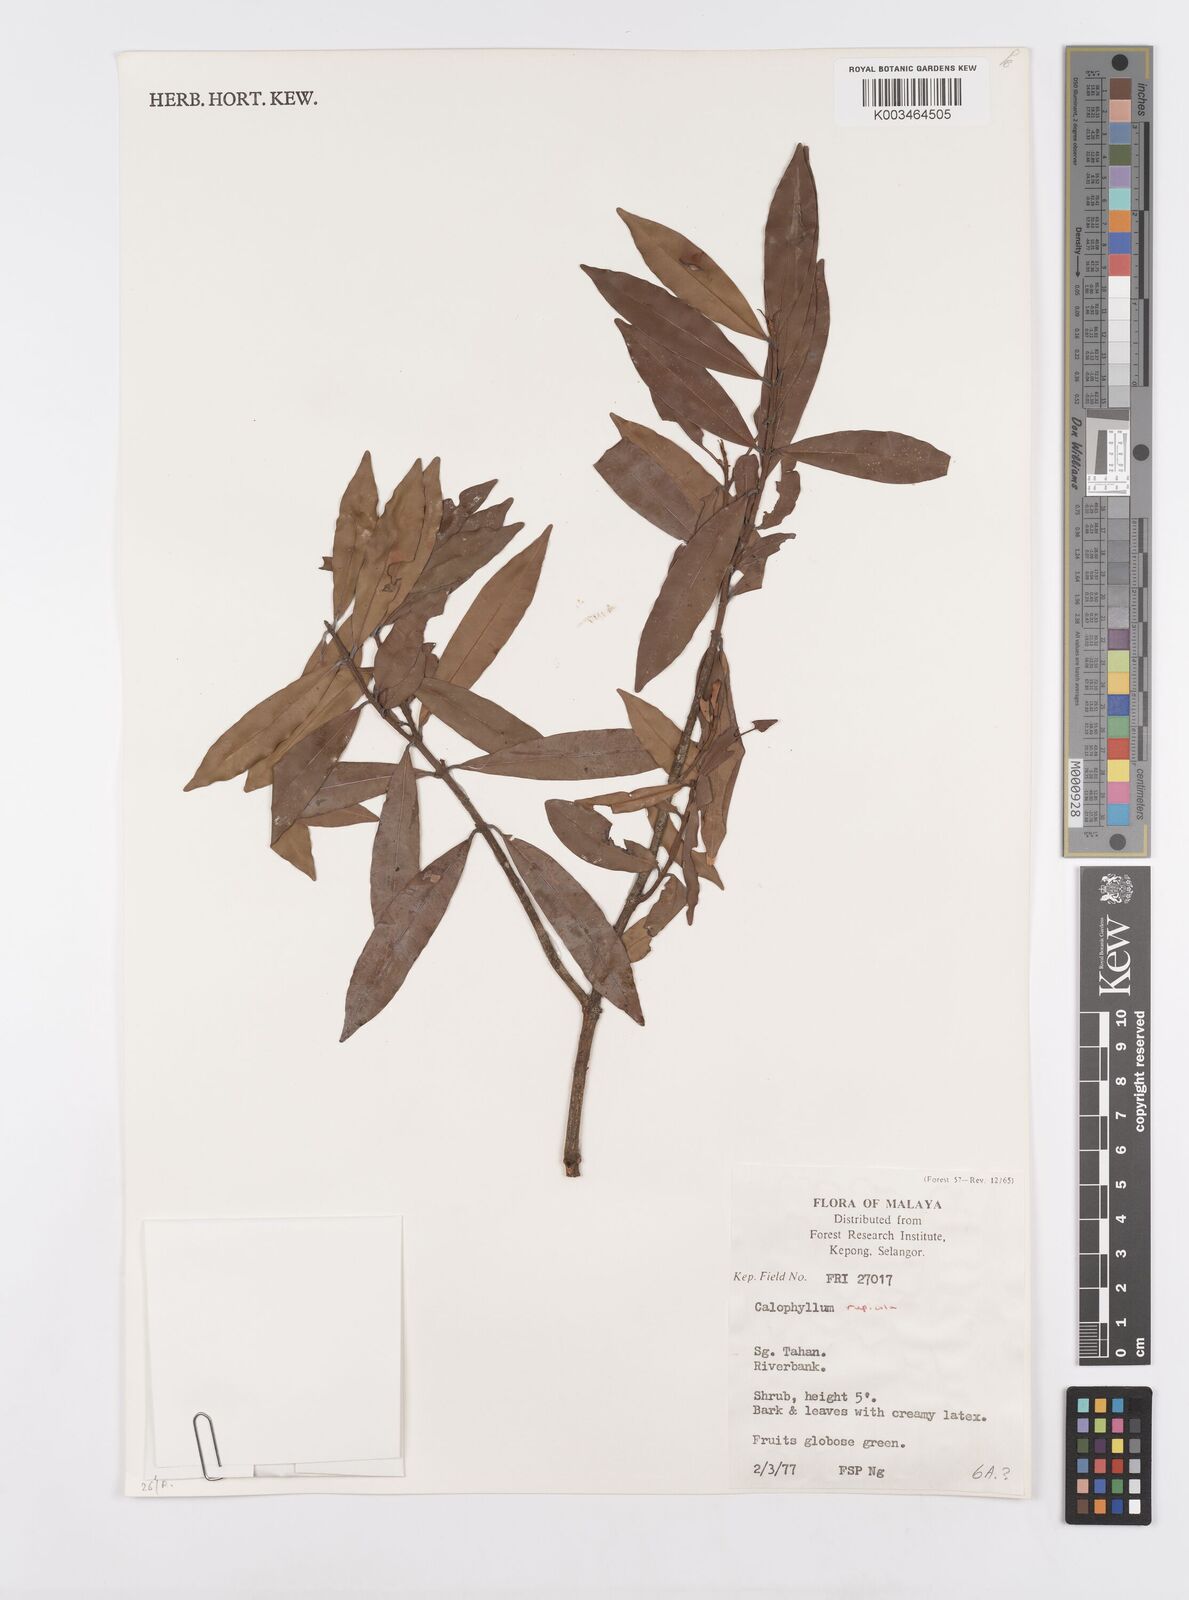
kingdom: Plantae
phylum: Tracheophyta
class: Magnoliopsida
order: Malpighiales
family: Calophyllaceae
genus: Calophyllum
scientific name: Calophyllum rupicola
